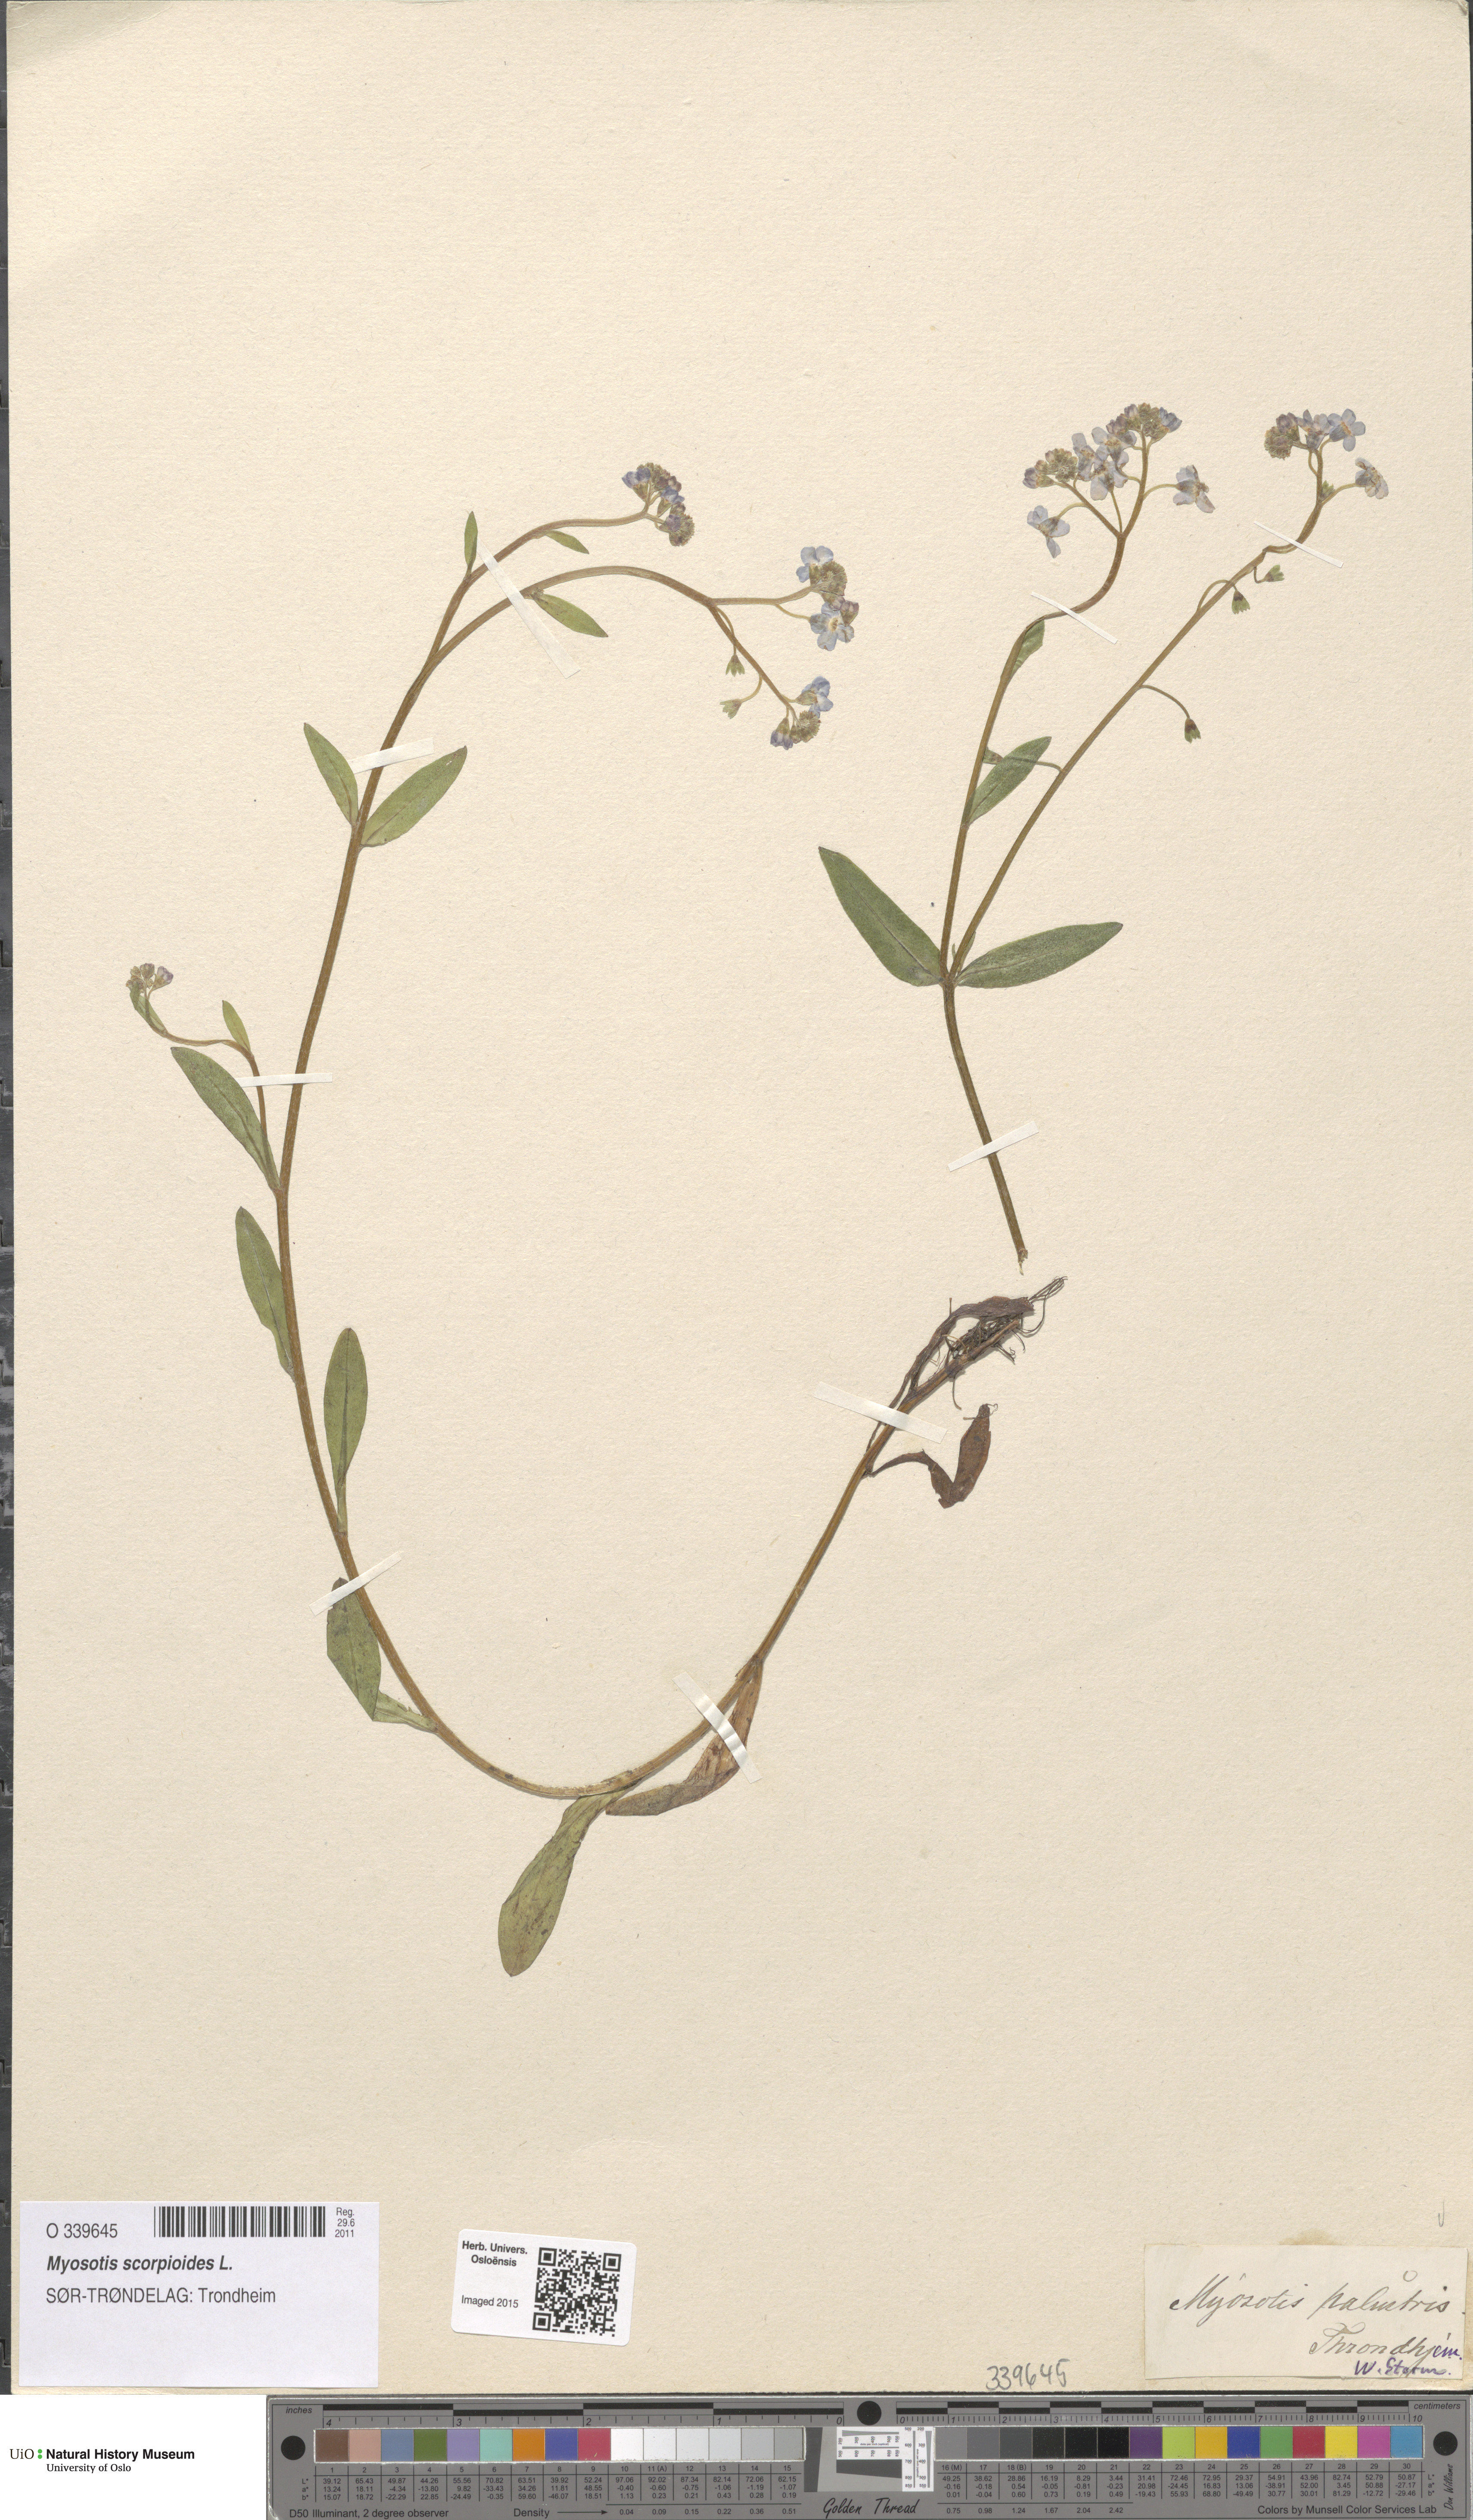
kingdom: Plantae
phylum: Tracheophyta
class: Magnoliopsida
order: Boraginales
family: Boraginaceae
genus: Myosotis
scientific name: Myosotis scorpioides
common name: Water forget-me-not
